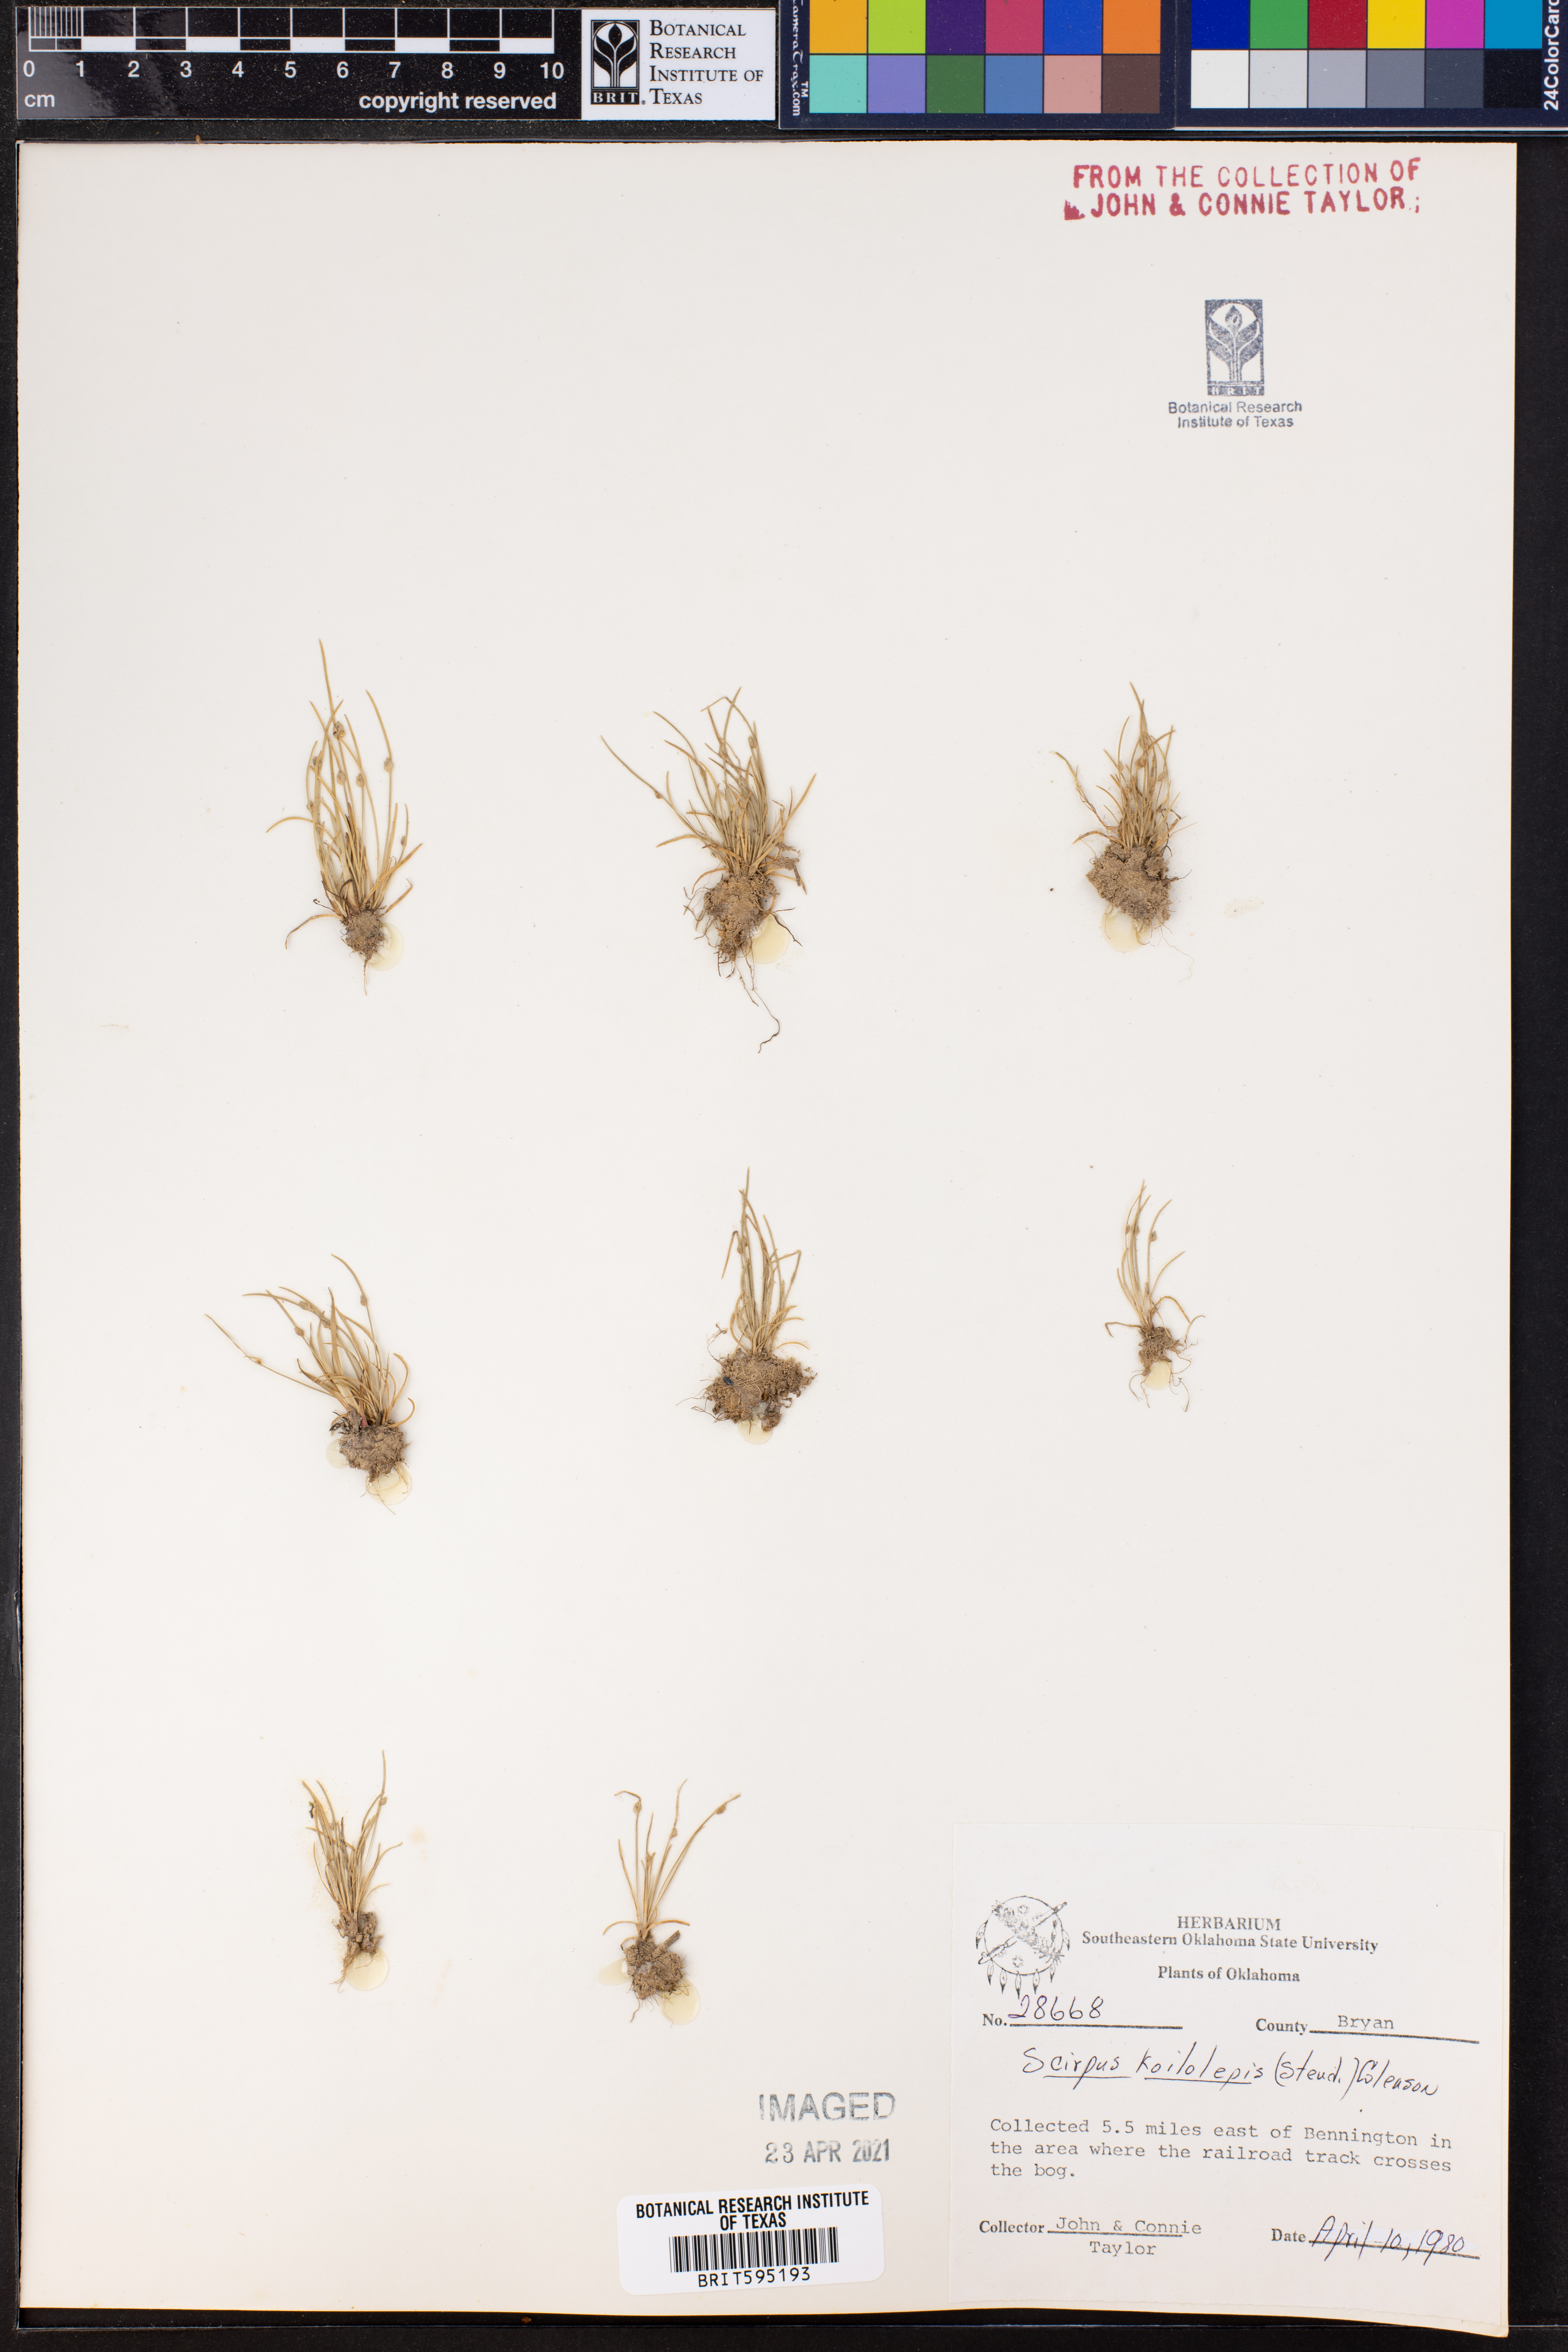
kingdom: Plantae
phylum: Tracheophyta
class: Liliopsida
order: Poales
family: Cyperaceae
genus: Isolepis
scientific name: Isolepis carinata
